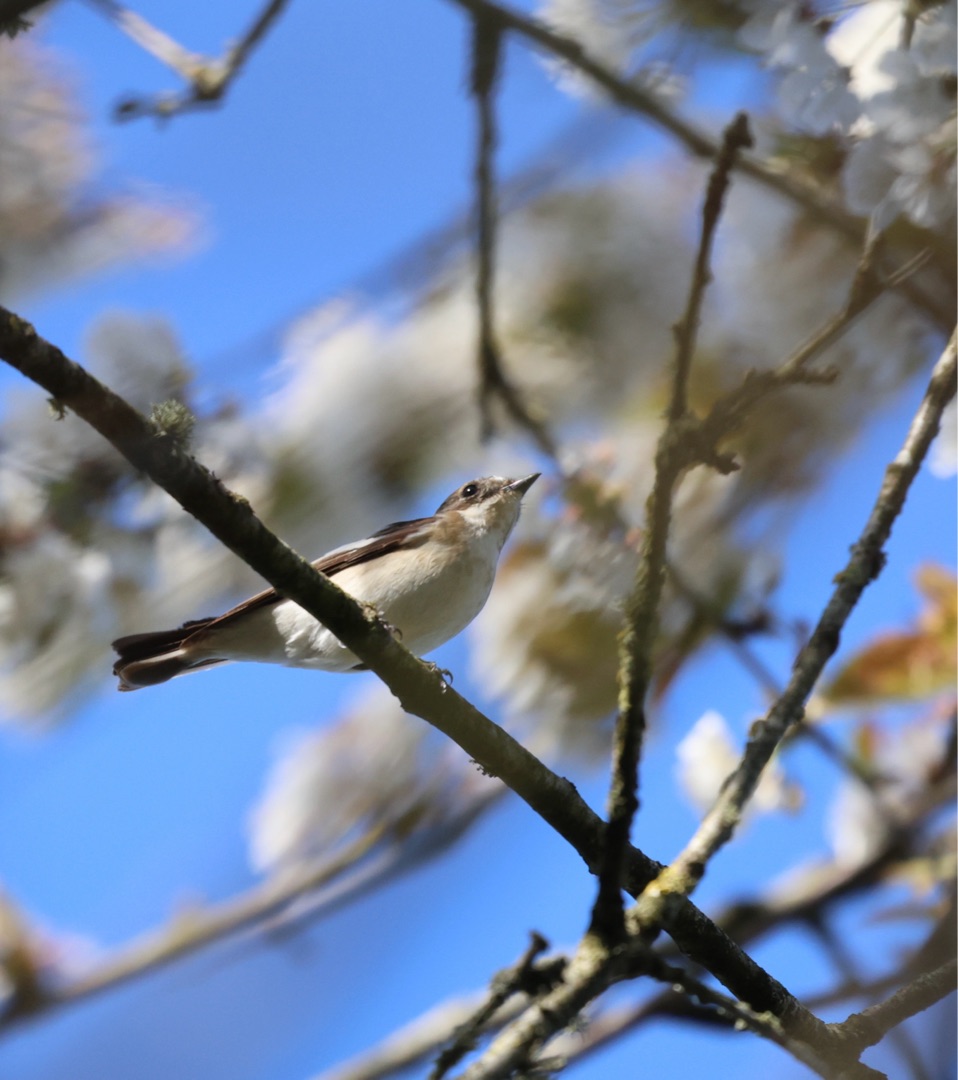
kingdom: Animalia
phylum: Chordata
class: Aves
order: Passeriformes
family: Muscicapidae
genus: Ficedula
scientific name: Ficedula hypoleuca
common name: Broget fluesnapper
